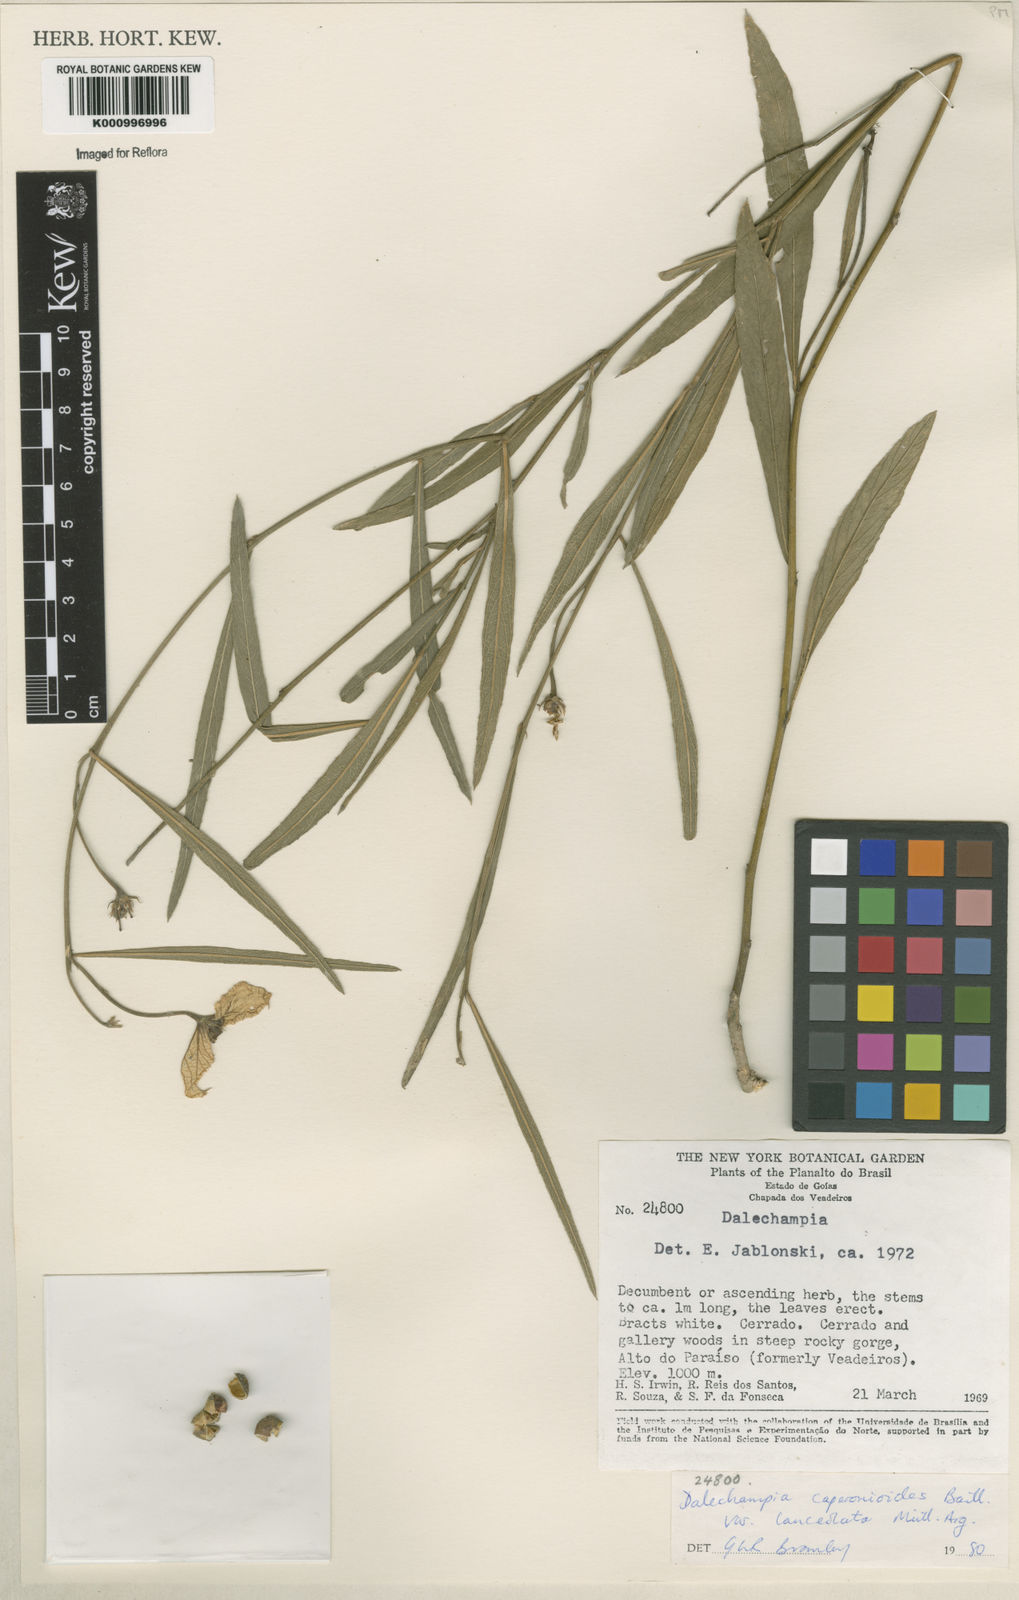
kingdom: Plantae
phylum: Tracheophyta
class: Magnoliopsida
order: Malpighiales
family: Euphorbiaceae
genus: Dalechampia
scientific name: Dalechampia caperonioides
